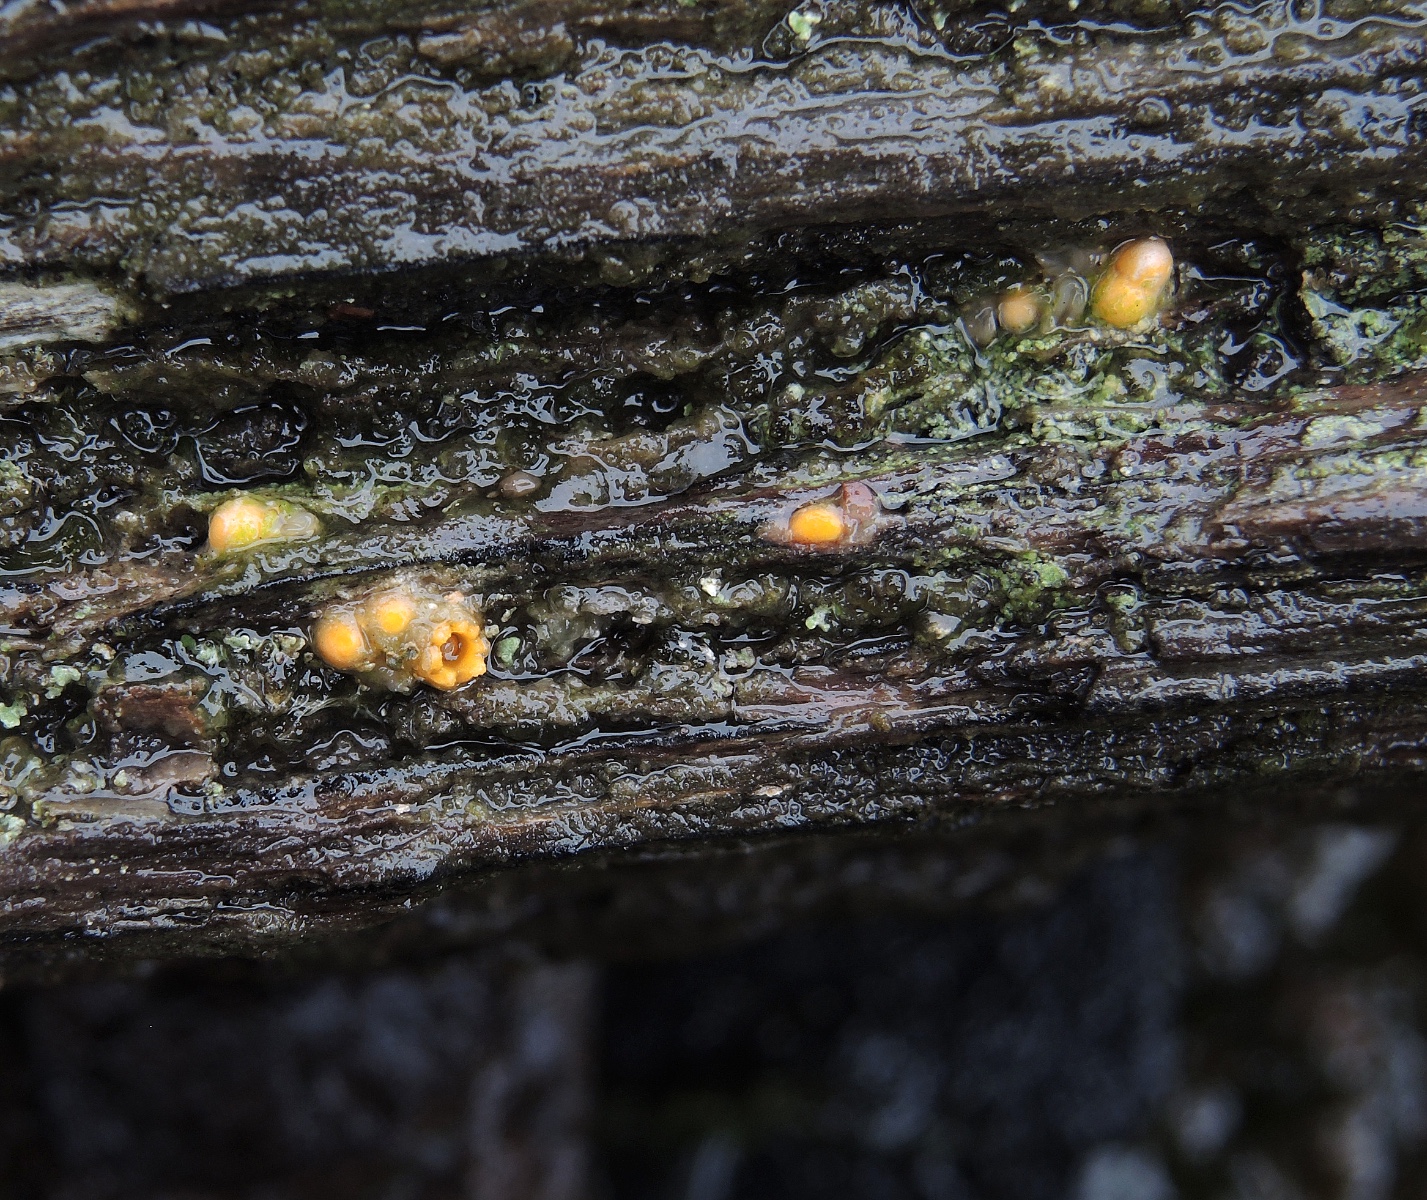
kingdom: Fungi
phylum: Basidiomycota
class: Agaricomycetes
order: Geastrales
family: Geastraceae
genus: Sphaerobolus
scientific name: Sphaerobolus stellatus
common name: bombekaster
